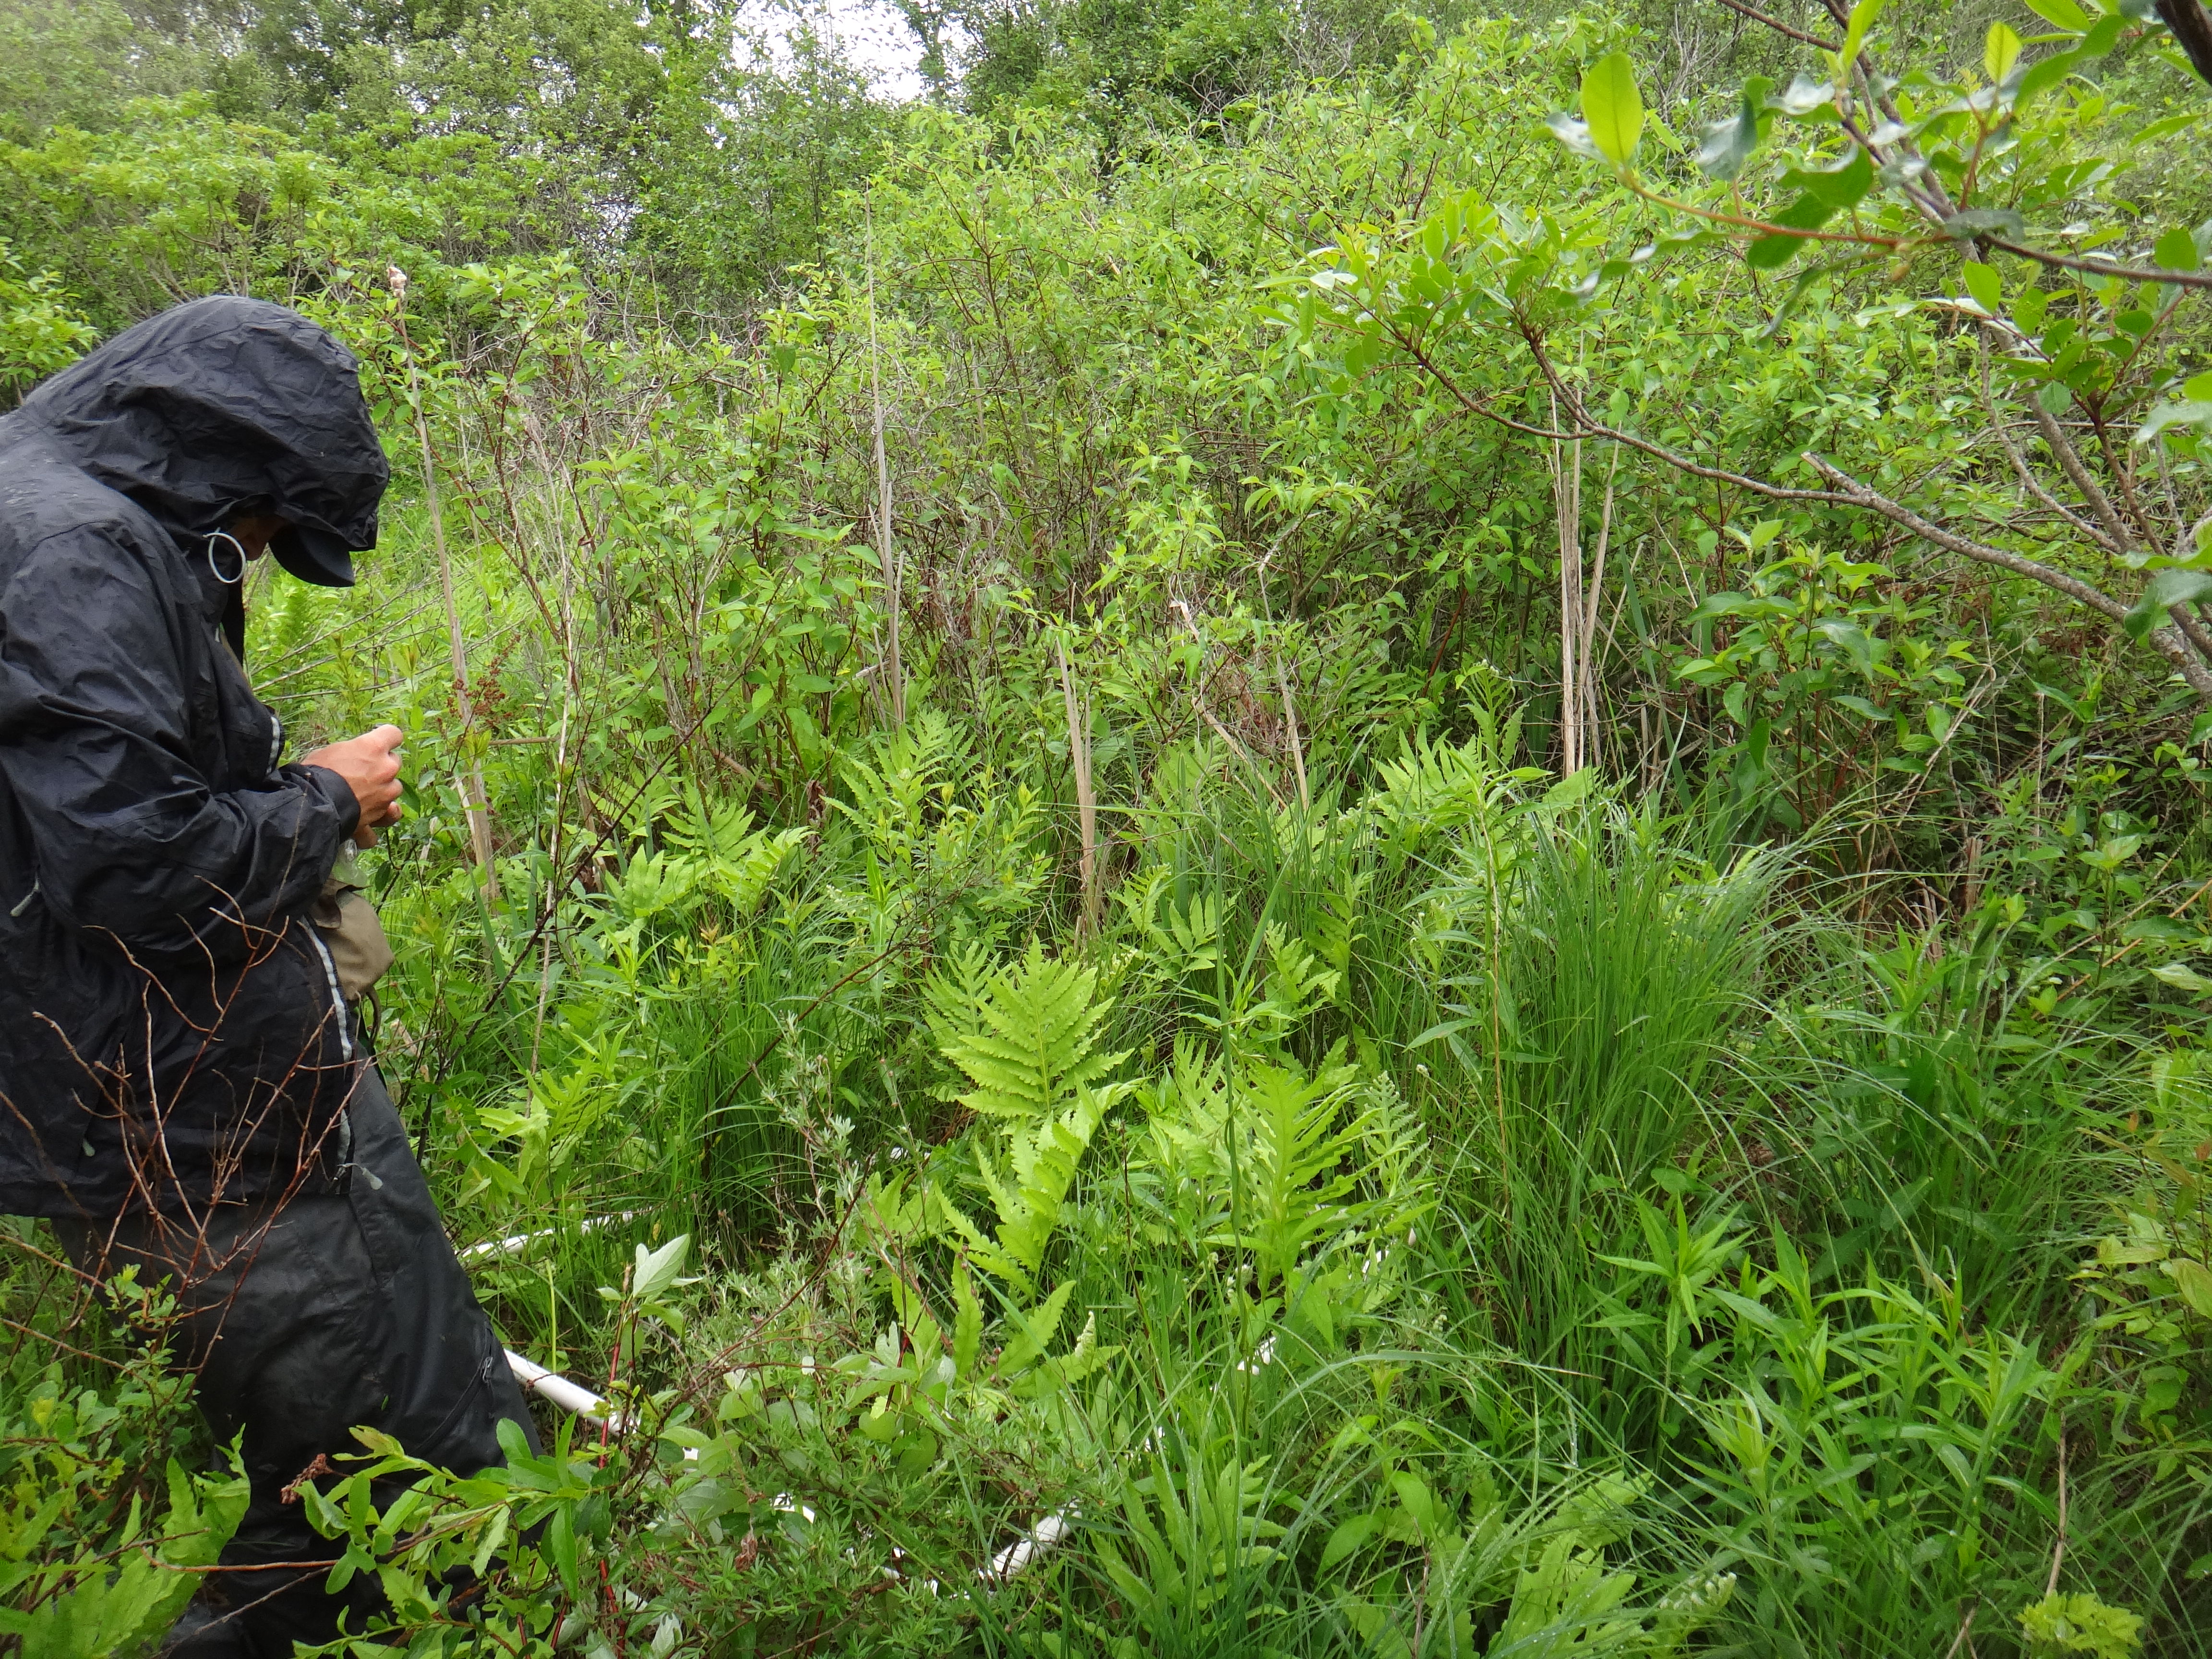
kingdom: Plantae
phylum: Tracheophyta
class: Magnoliopsida
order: Asterales
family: Asteraceae
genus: Symphyotrichum
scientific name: Symphyotrichum puniceum
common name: Bog aster
